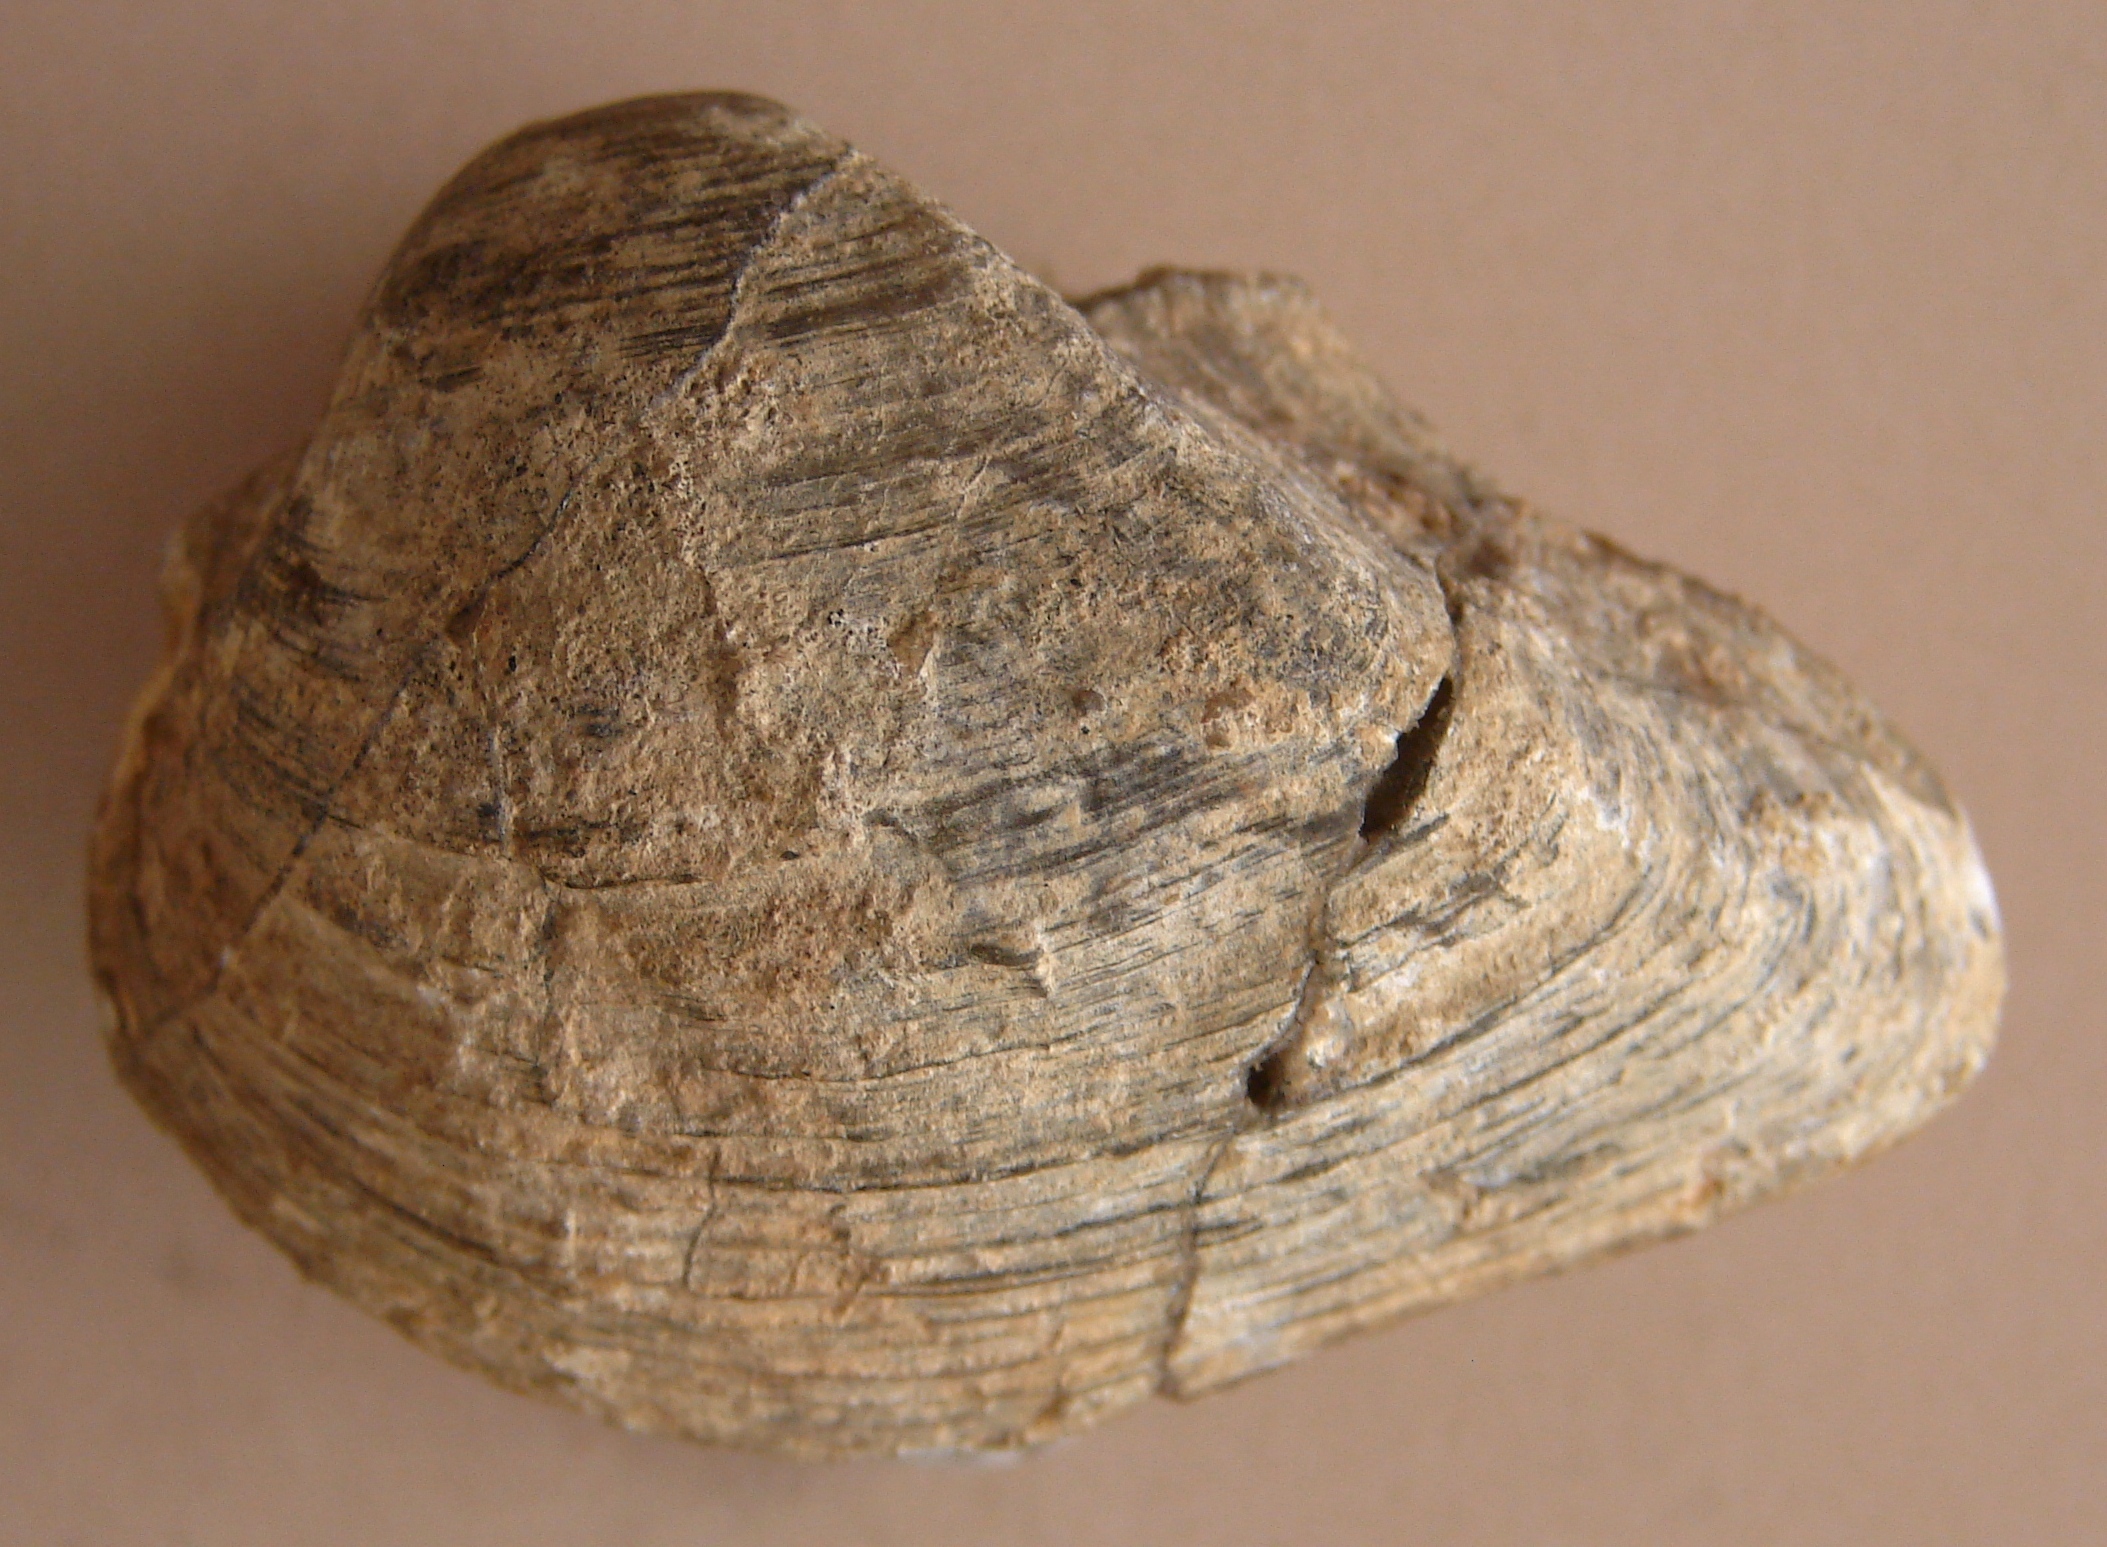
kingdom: Animalia
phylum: Mollusca
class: Bivalvia
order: Arcida
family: Arcidae
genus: Arca
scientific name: Arca
